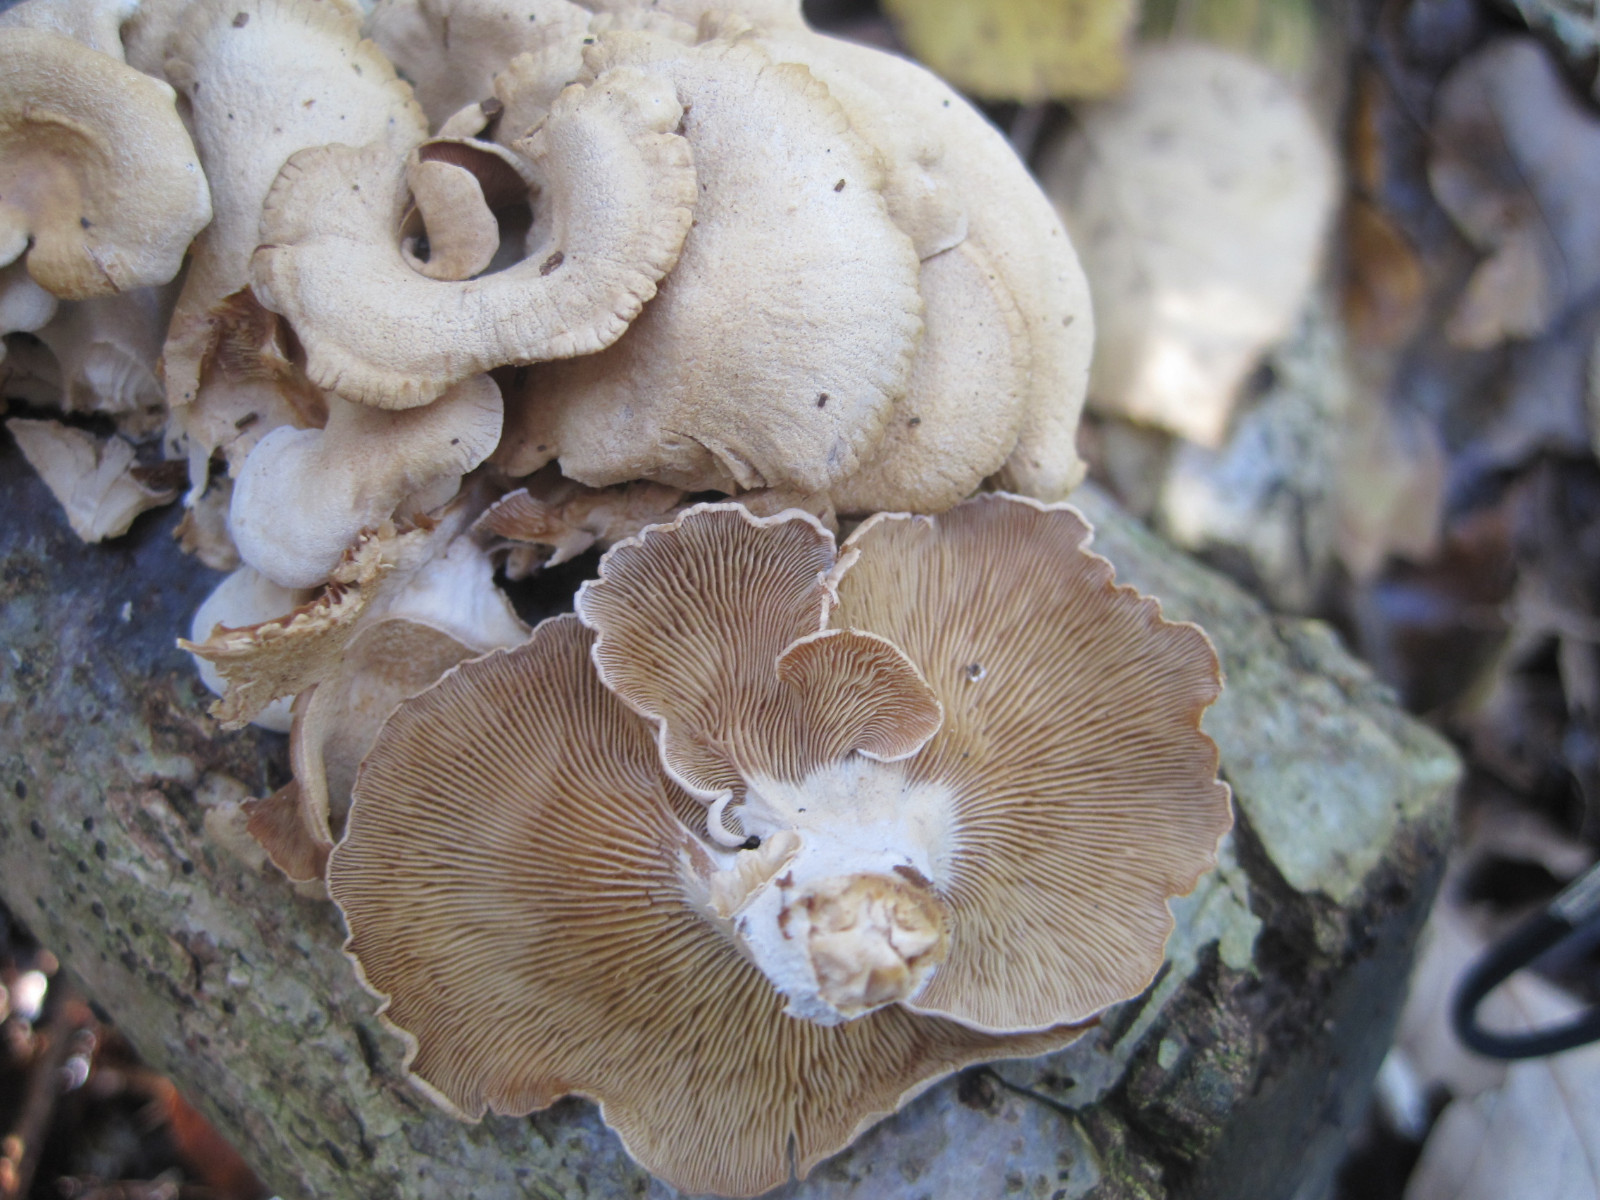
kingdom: Fungi
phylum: Basidiomycota
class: Agaricomycetes
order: Agaricales
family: Mycenaceae
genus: Panellus
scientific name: Panellus stipticus
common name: kliddet epaulethat
